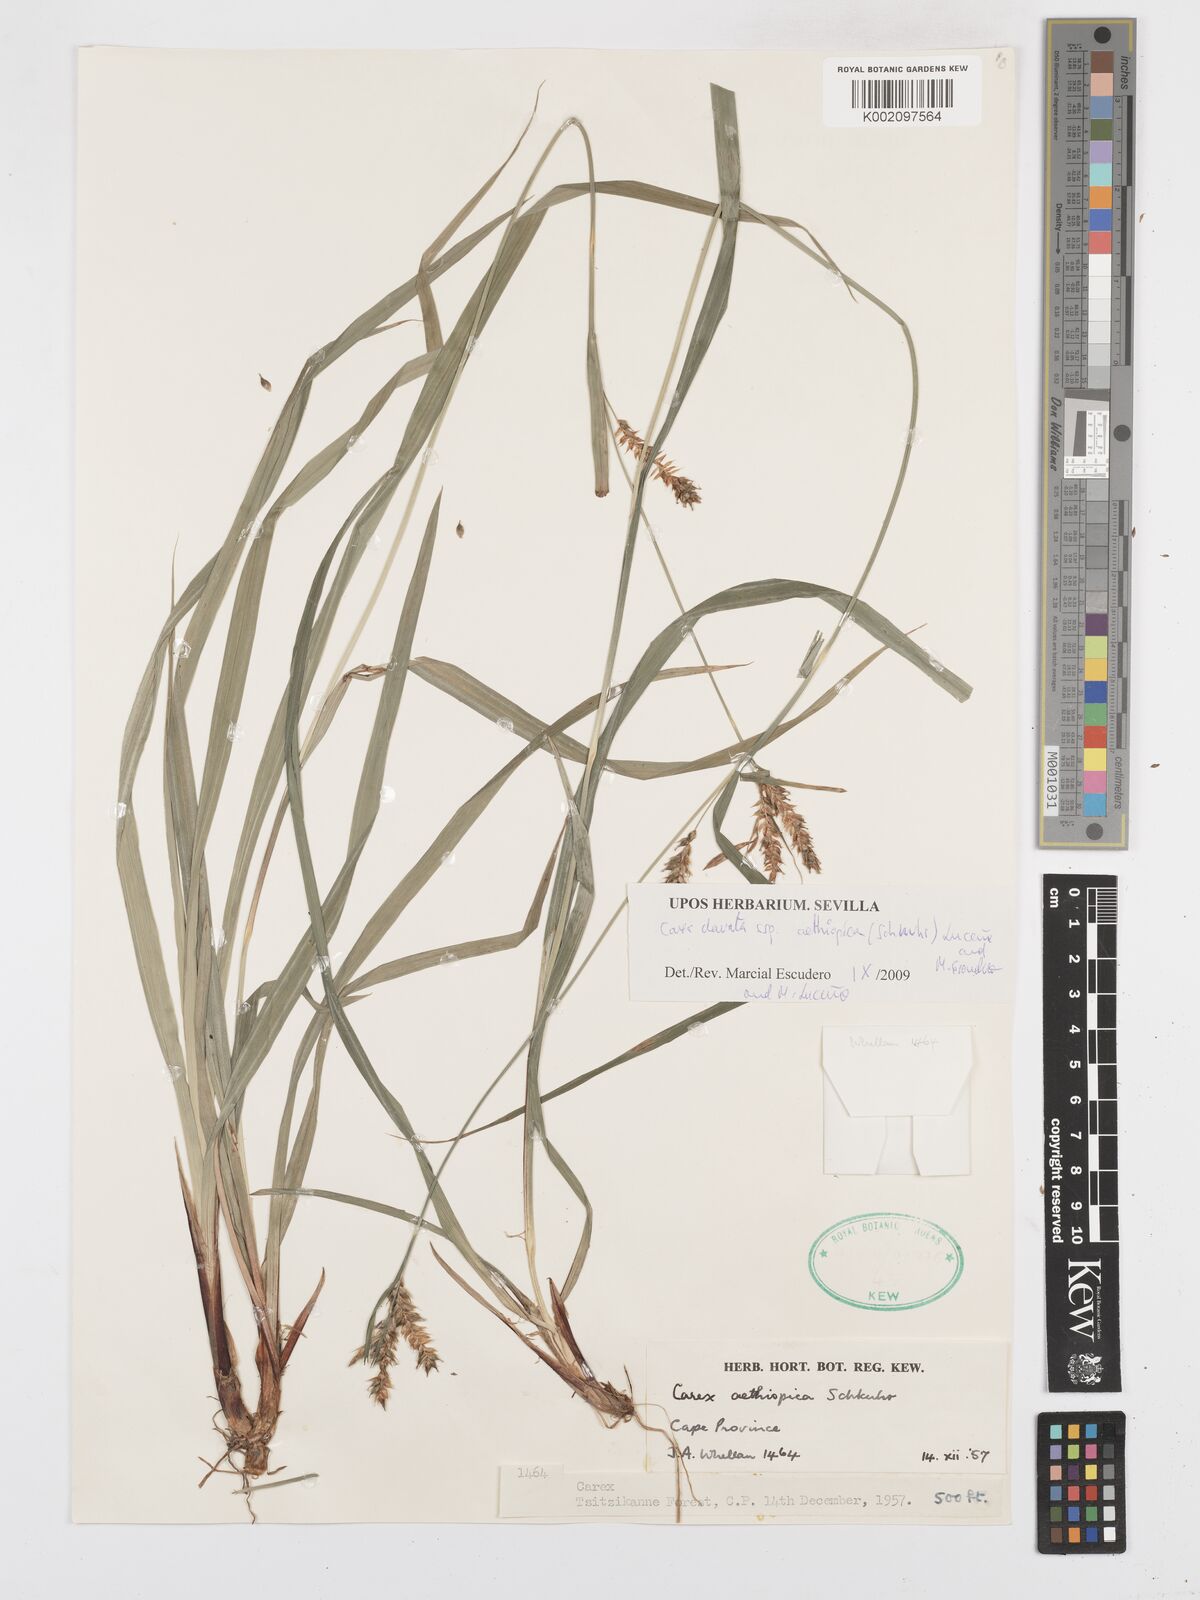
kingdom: Plantae
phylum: Tracheophyta
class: Liliopsida
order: Poales
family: Cyperaceae
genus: Carex
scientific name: Carex aethiopica
